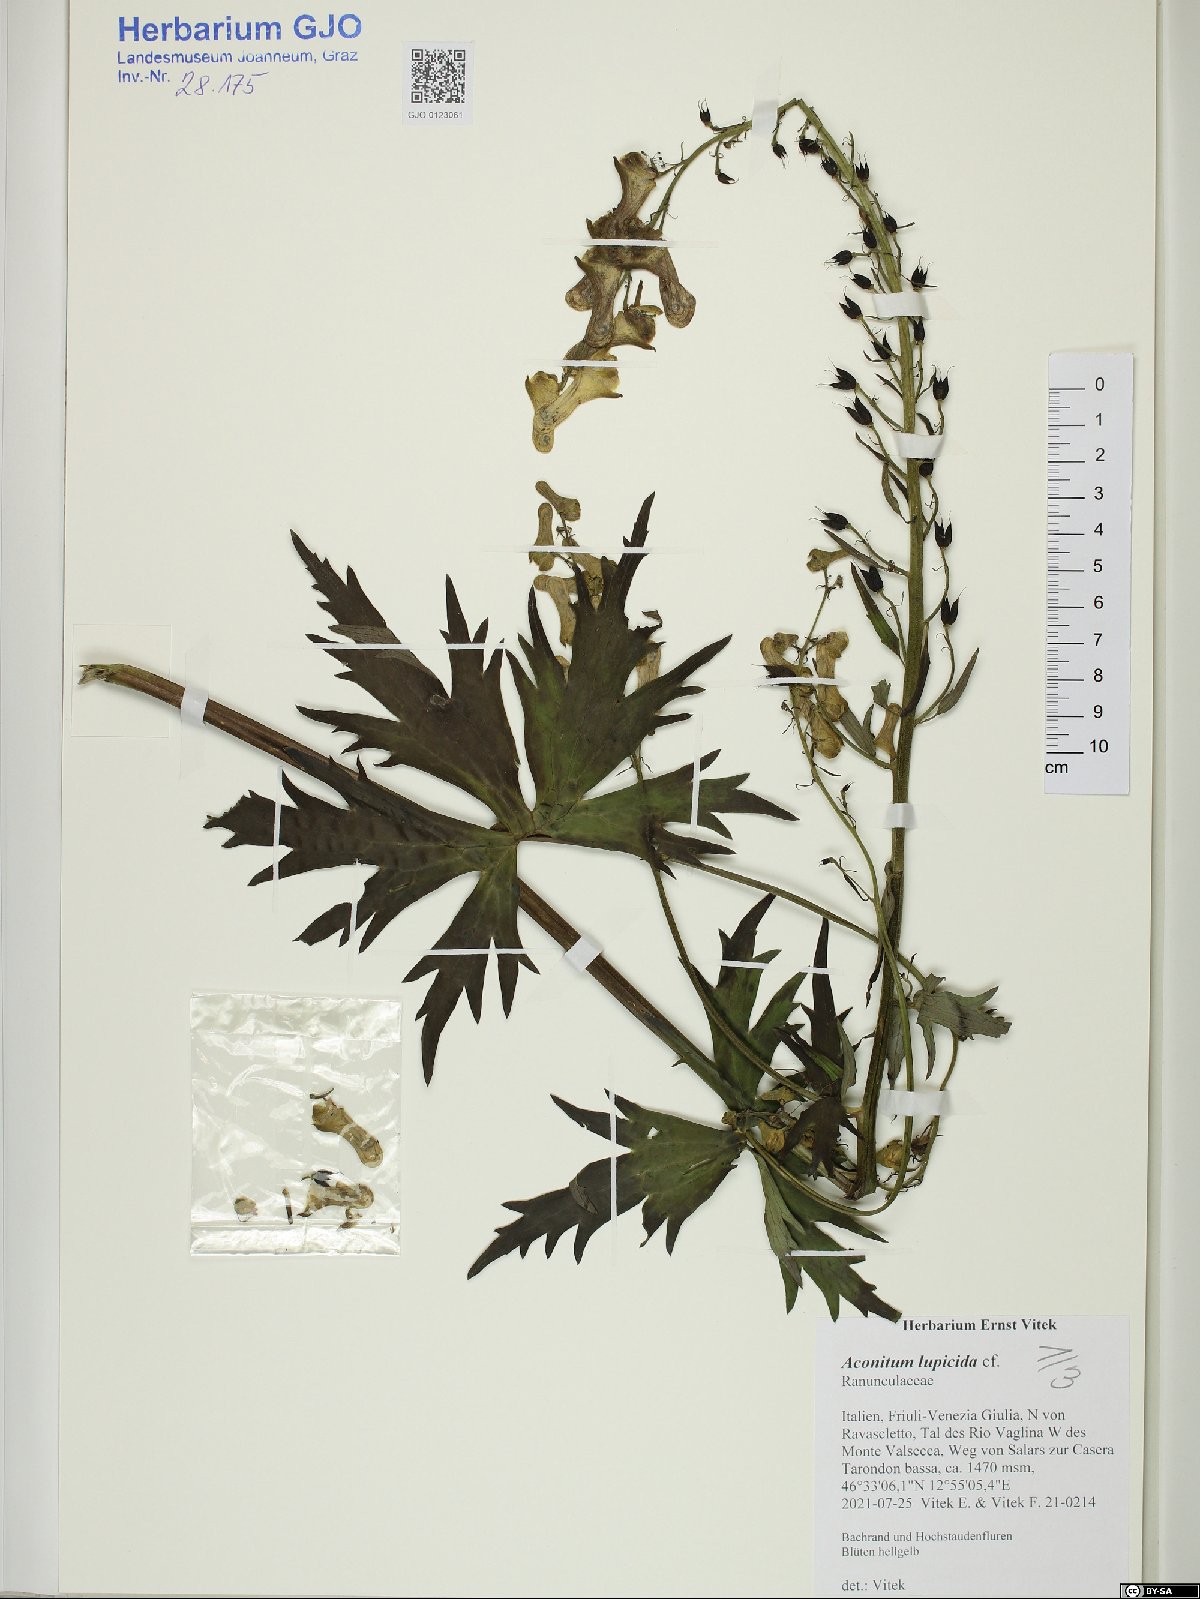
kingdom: Plantae
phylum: Tracheophyta
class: Magnoliopsida
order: Ranunculales
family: Ranunculaceae
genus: Aconitum
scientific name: Aconitum lycoctonum
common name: Wolf's-bane
